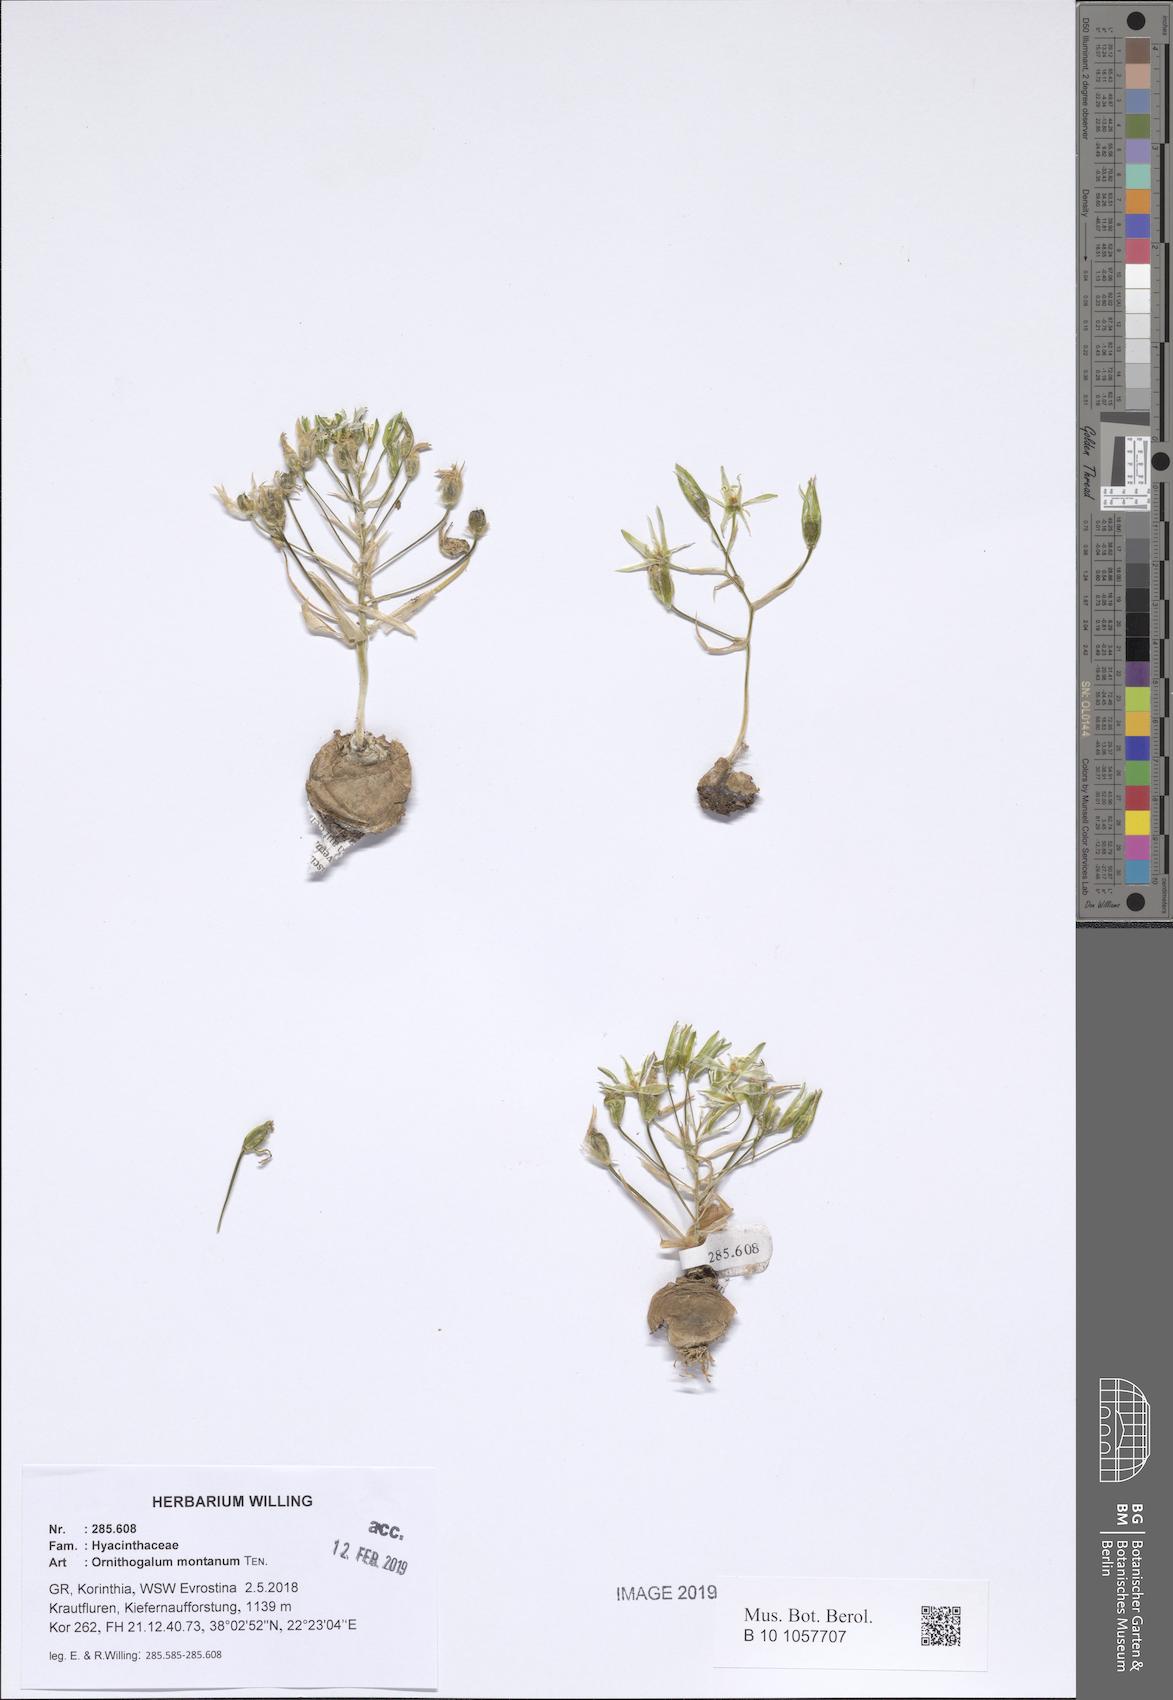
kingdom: Plantae
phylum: Tracheophyta
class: Liliopsida
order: Asparagales
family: Asparagaceae
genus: Ornithogalum
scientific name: Ornithogalum montanum
